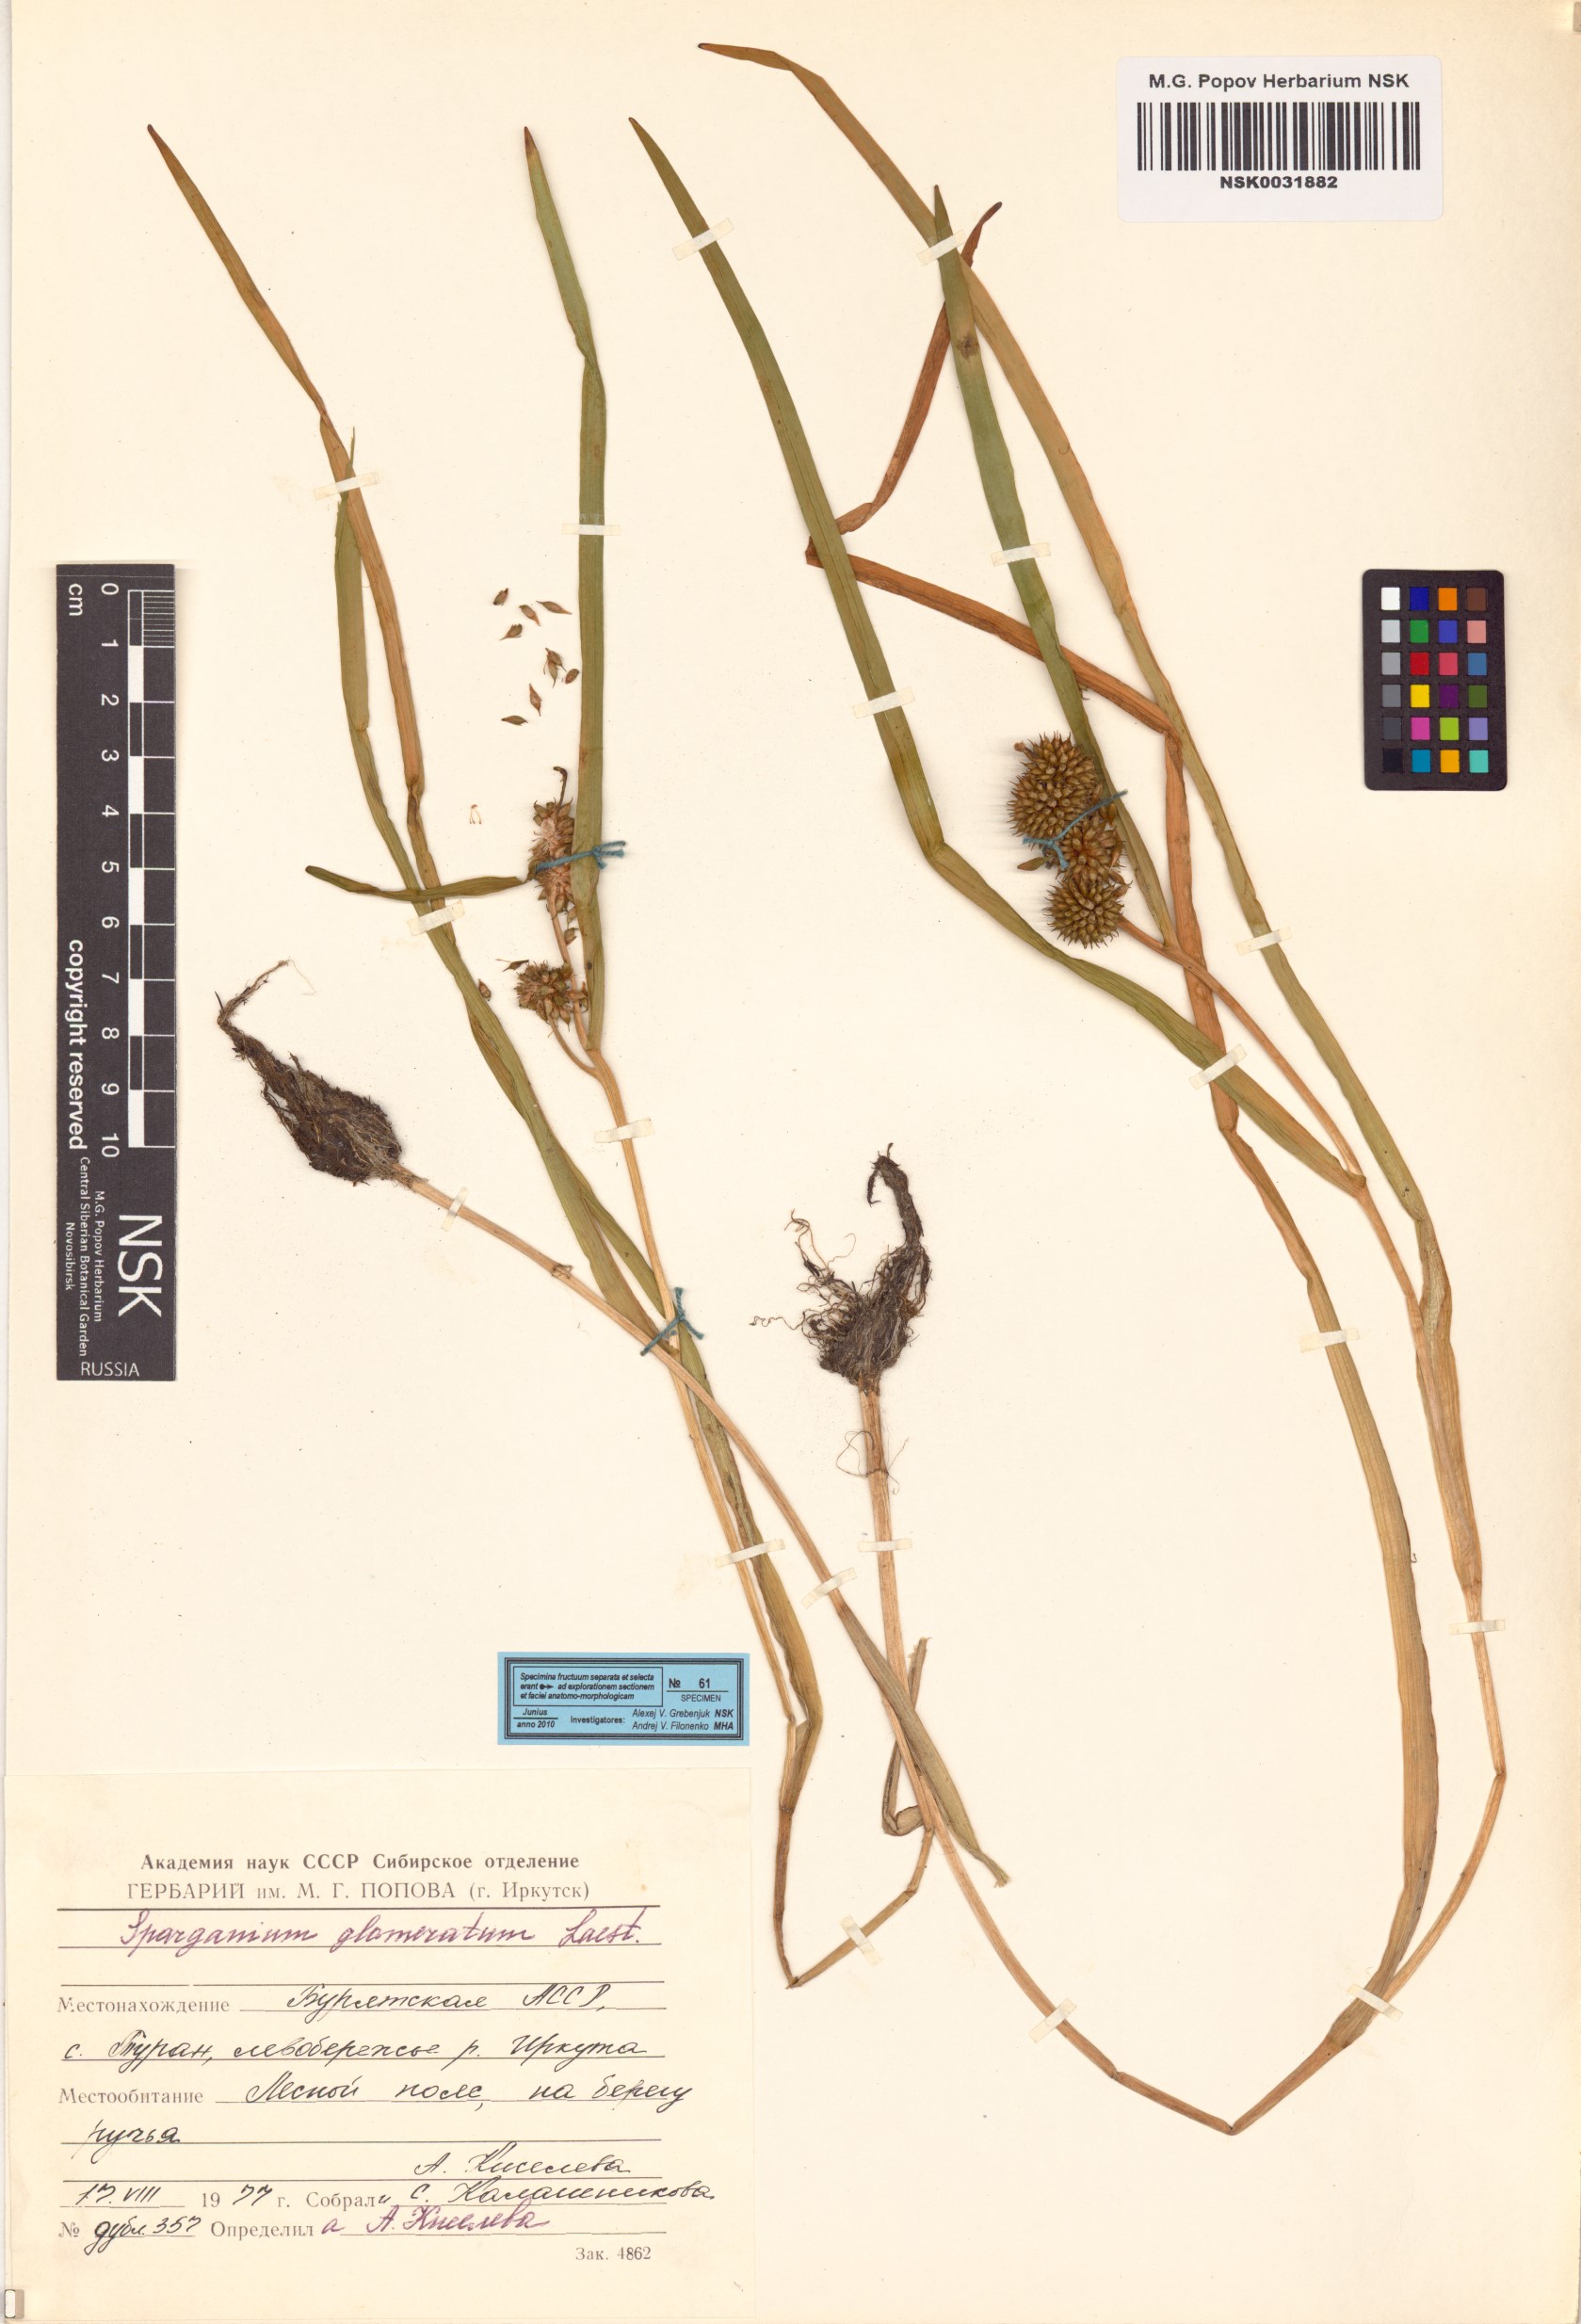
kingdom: Plantae
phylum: Tracheophyta
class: Liliopsida
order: Poales
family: Typhaceae
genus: Sparganium
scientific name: Sparganium glomeratum
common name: Clustered burreed
